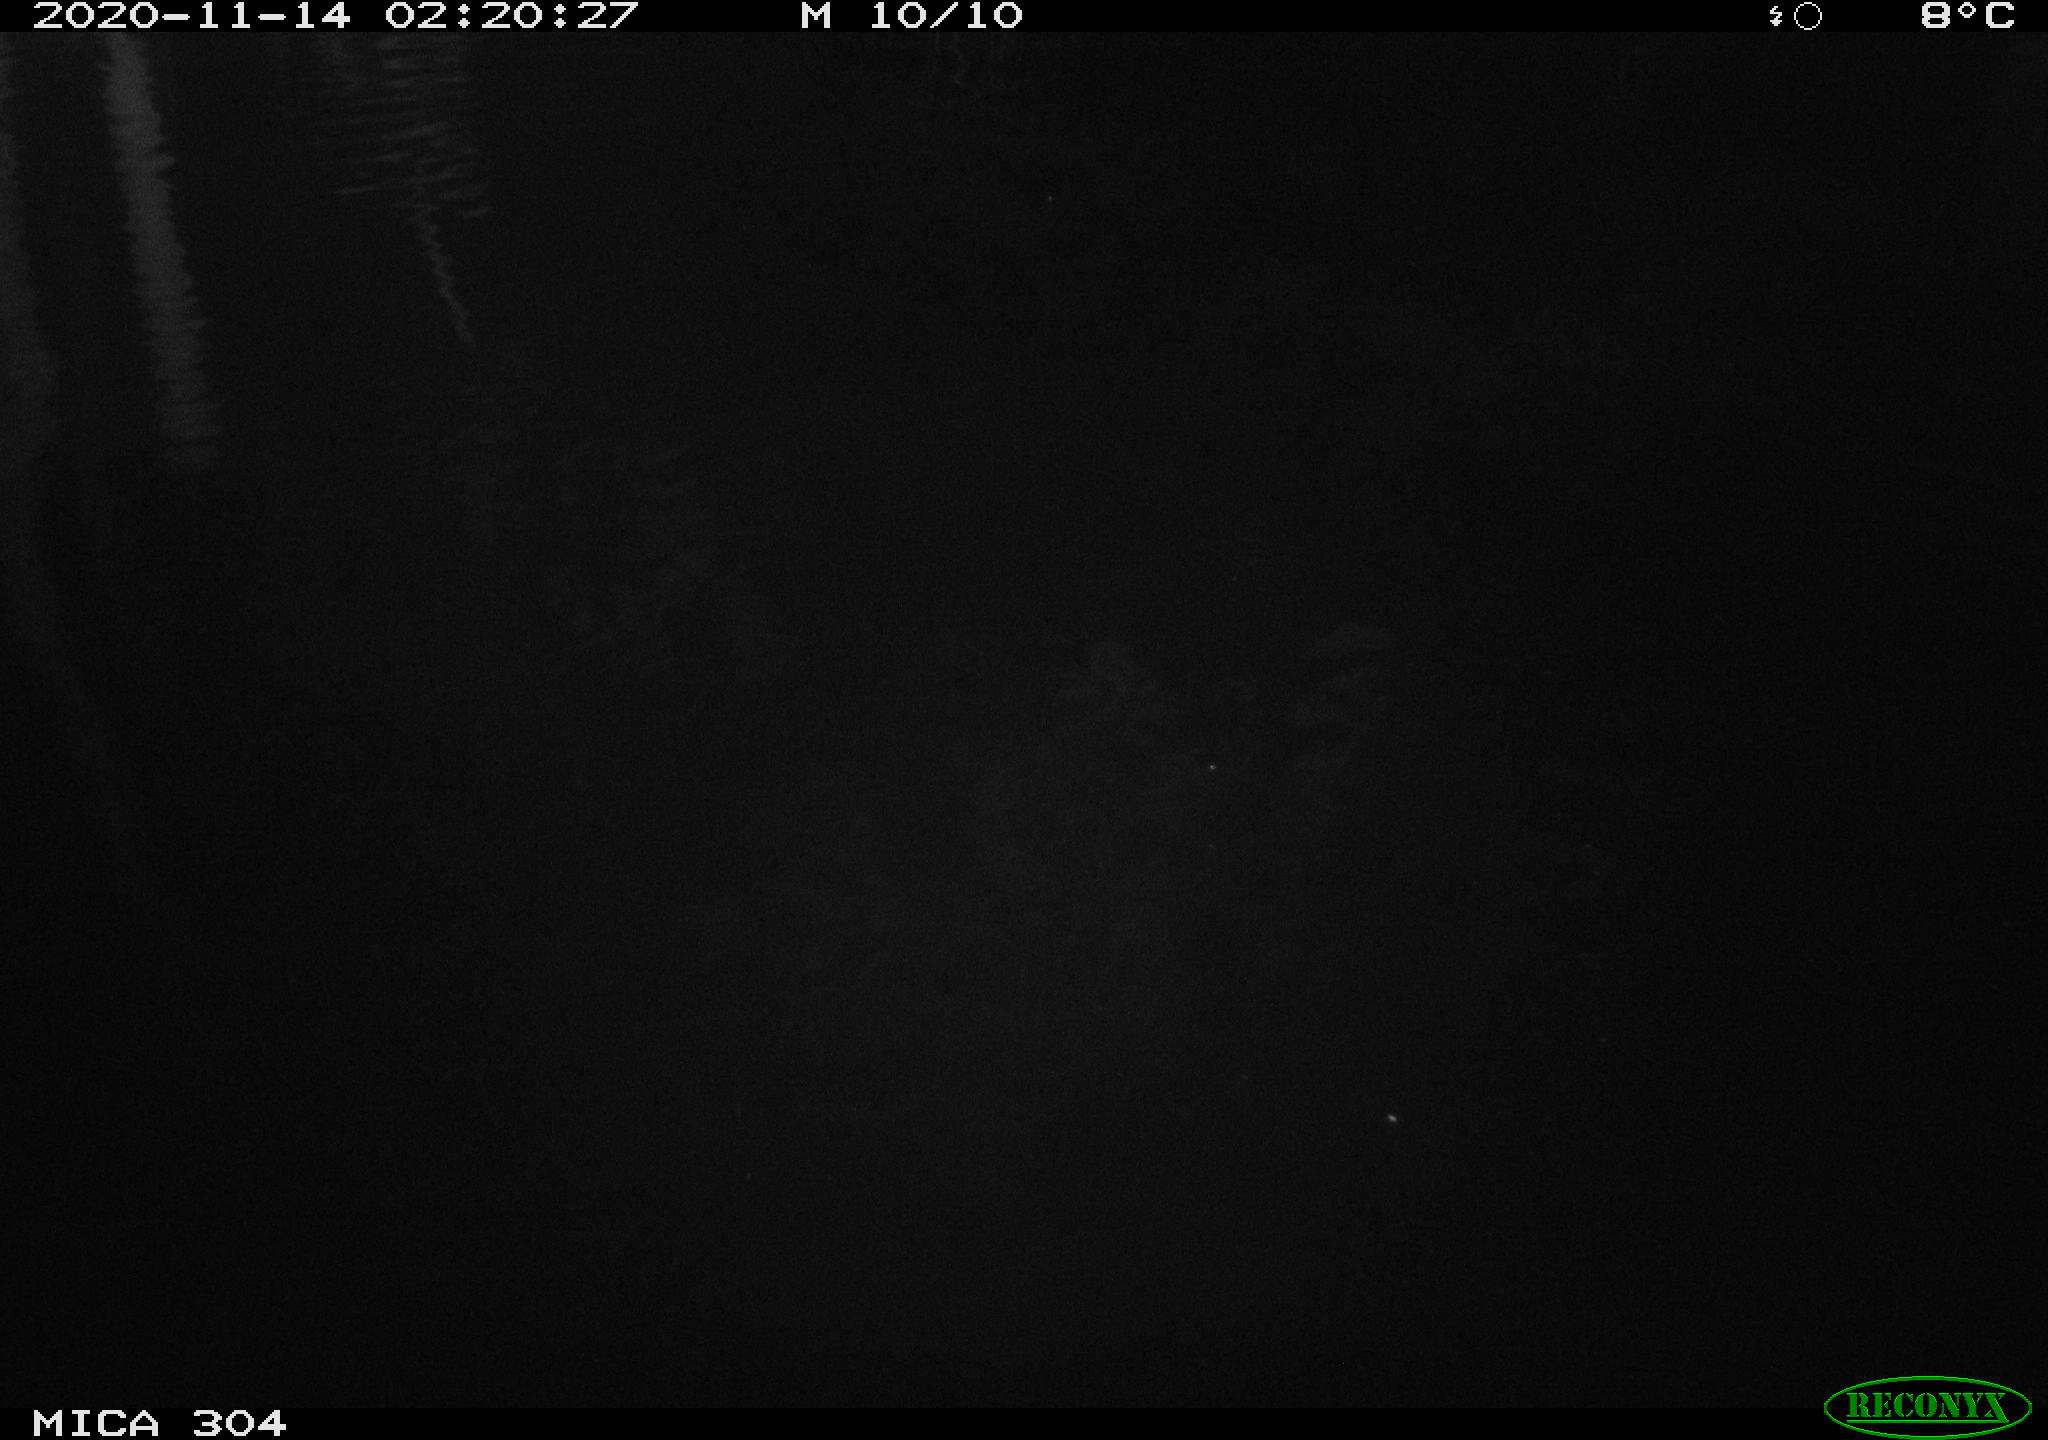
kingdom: Animalia
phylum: Chordata
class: Mammalia
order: Rodentia
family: Muridae
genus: Rattus
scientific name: Rattus norvegicus
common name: Brown rat
